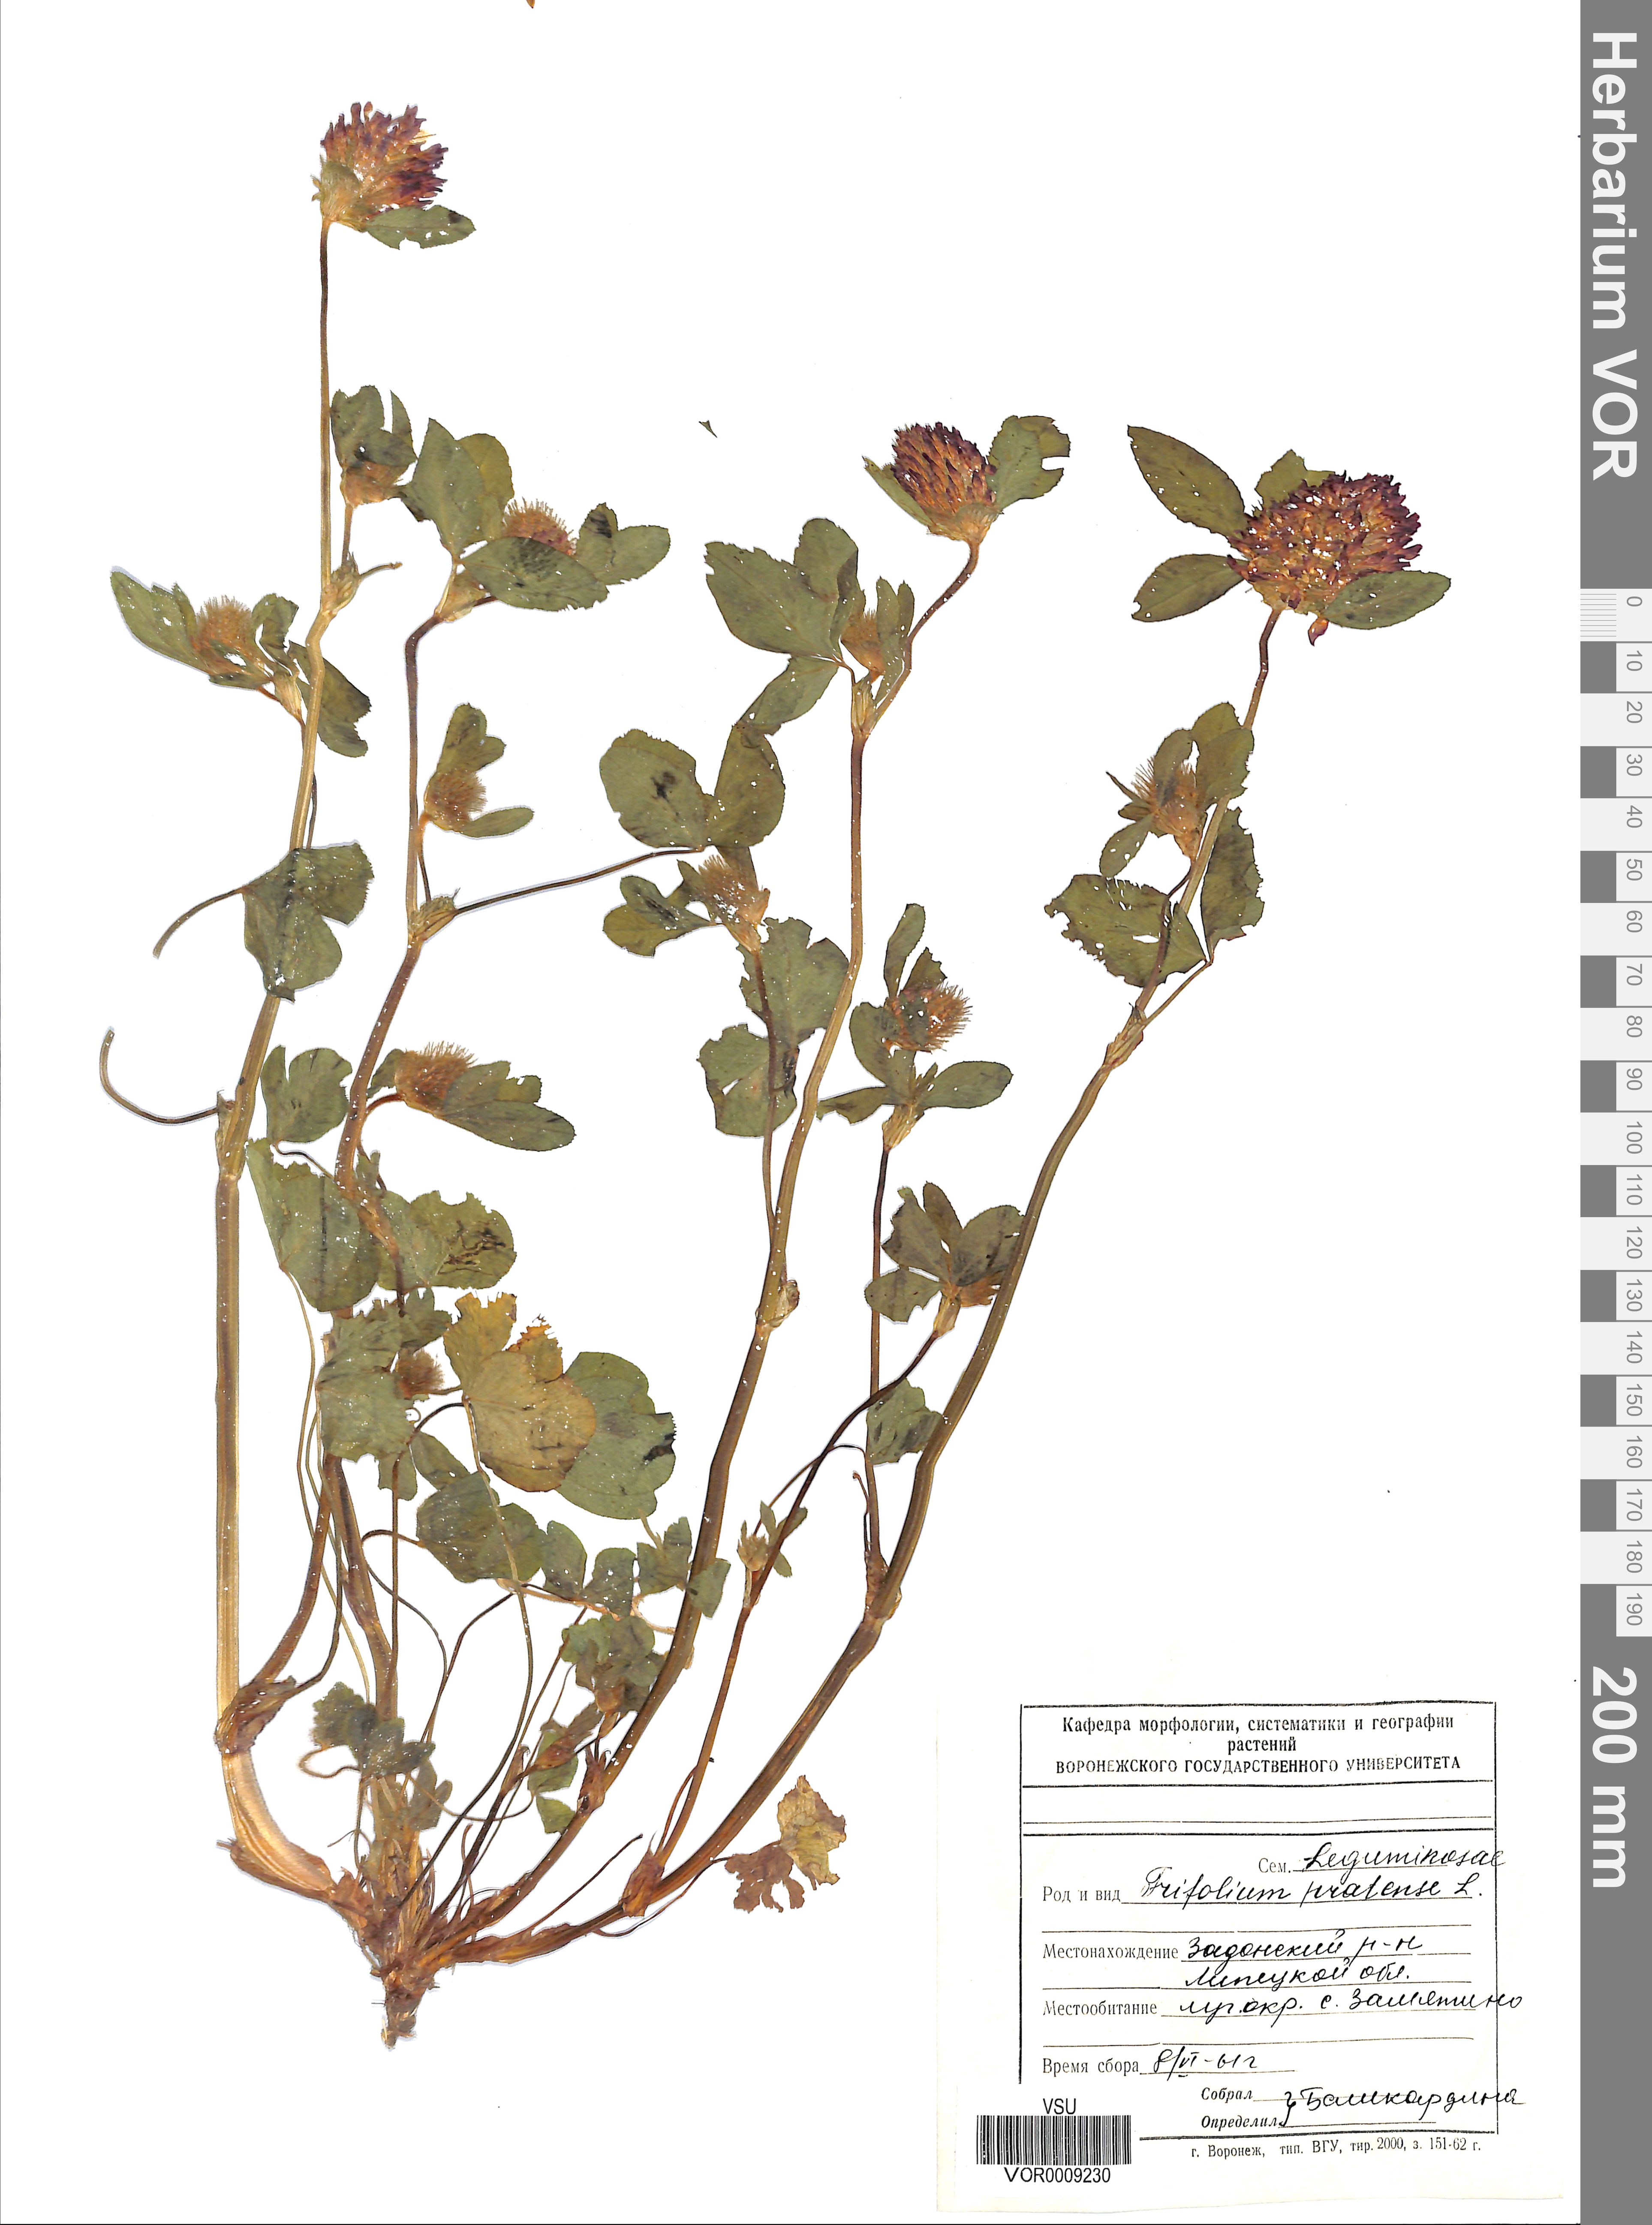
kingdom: Plantae
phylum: Tracheophyta
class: Magnoliopsida
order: Fabales
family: Fabaceae
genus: Trifolium
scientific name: Trifolium pratense
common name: Red clover
